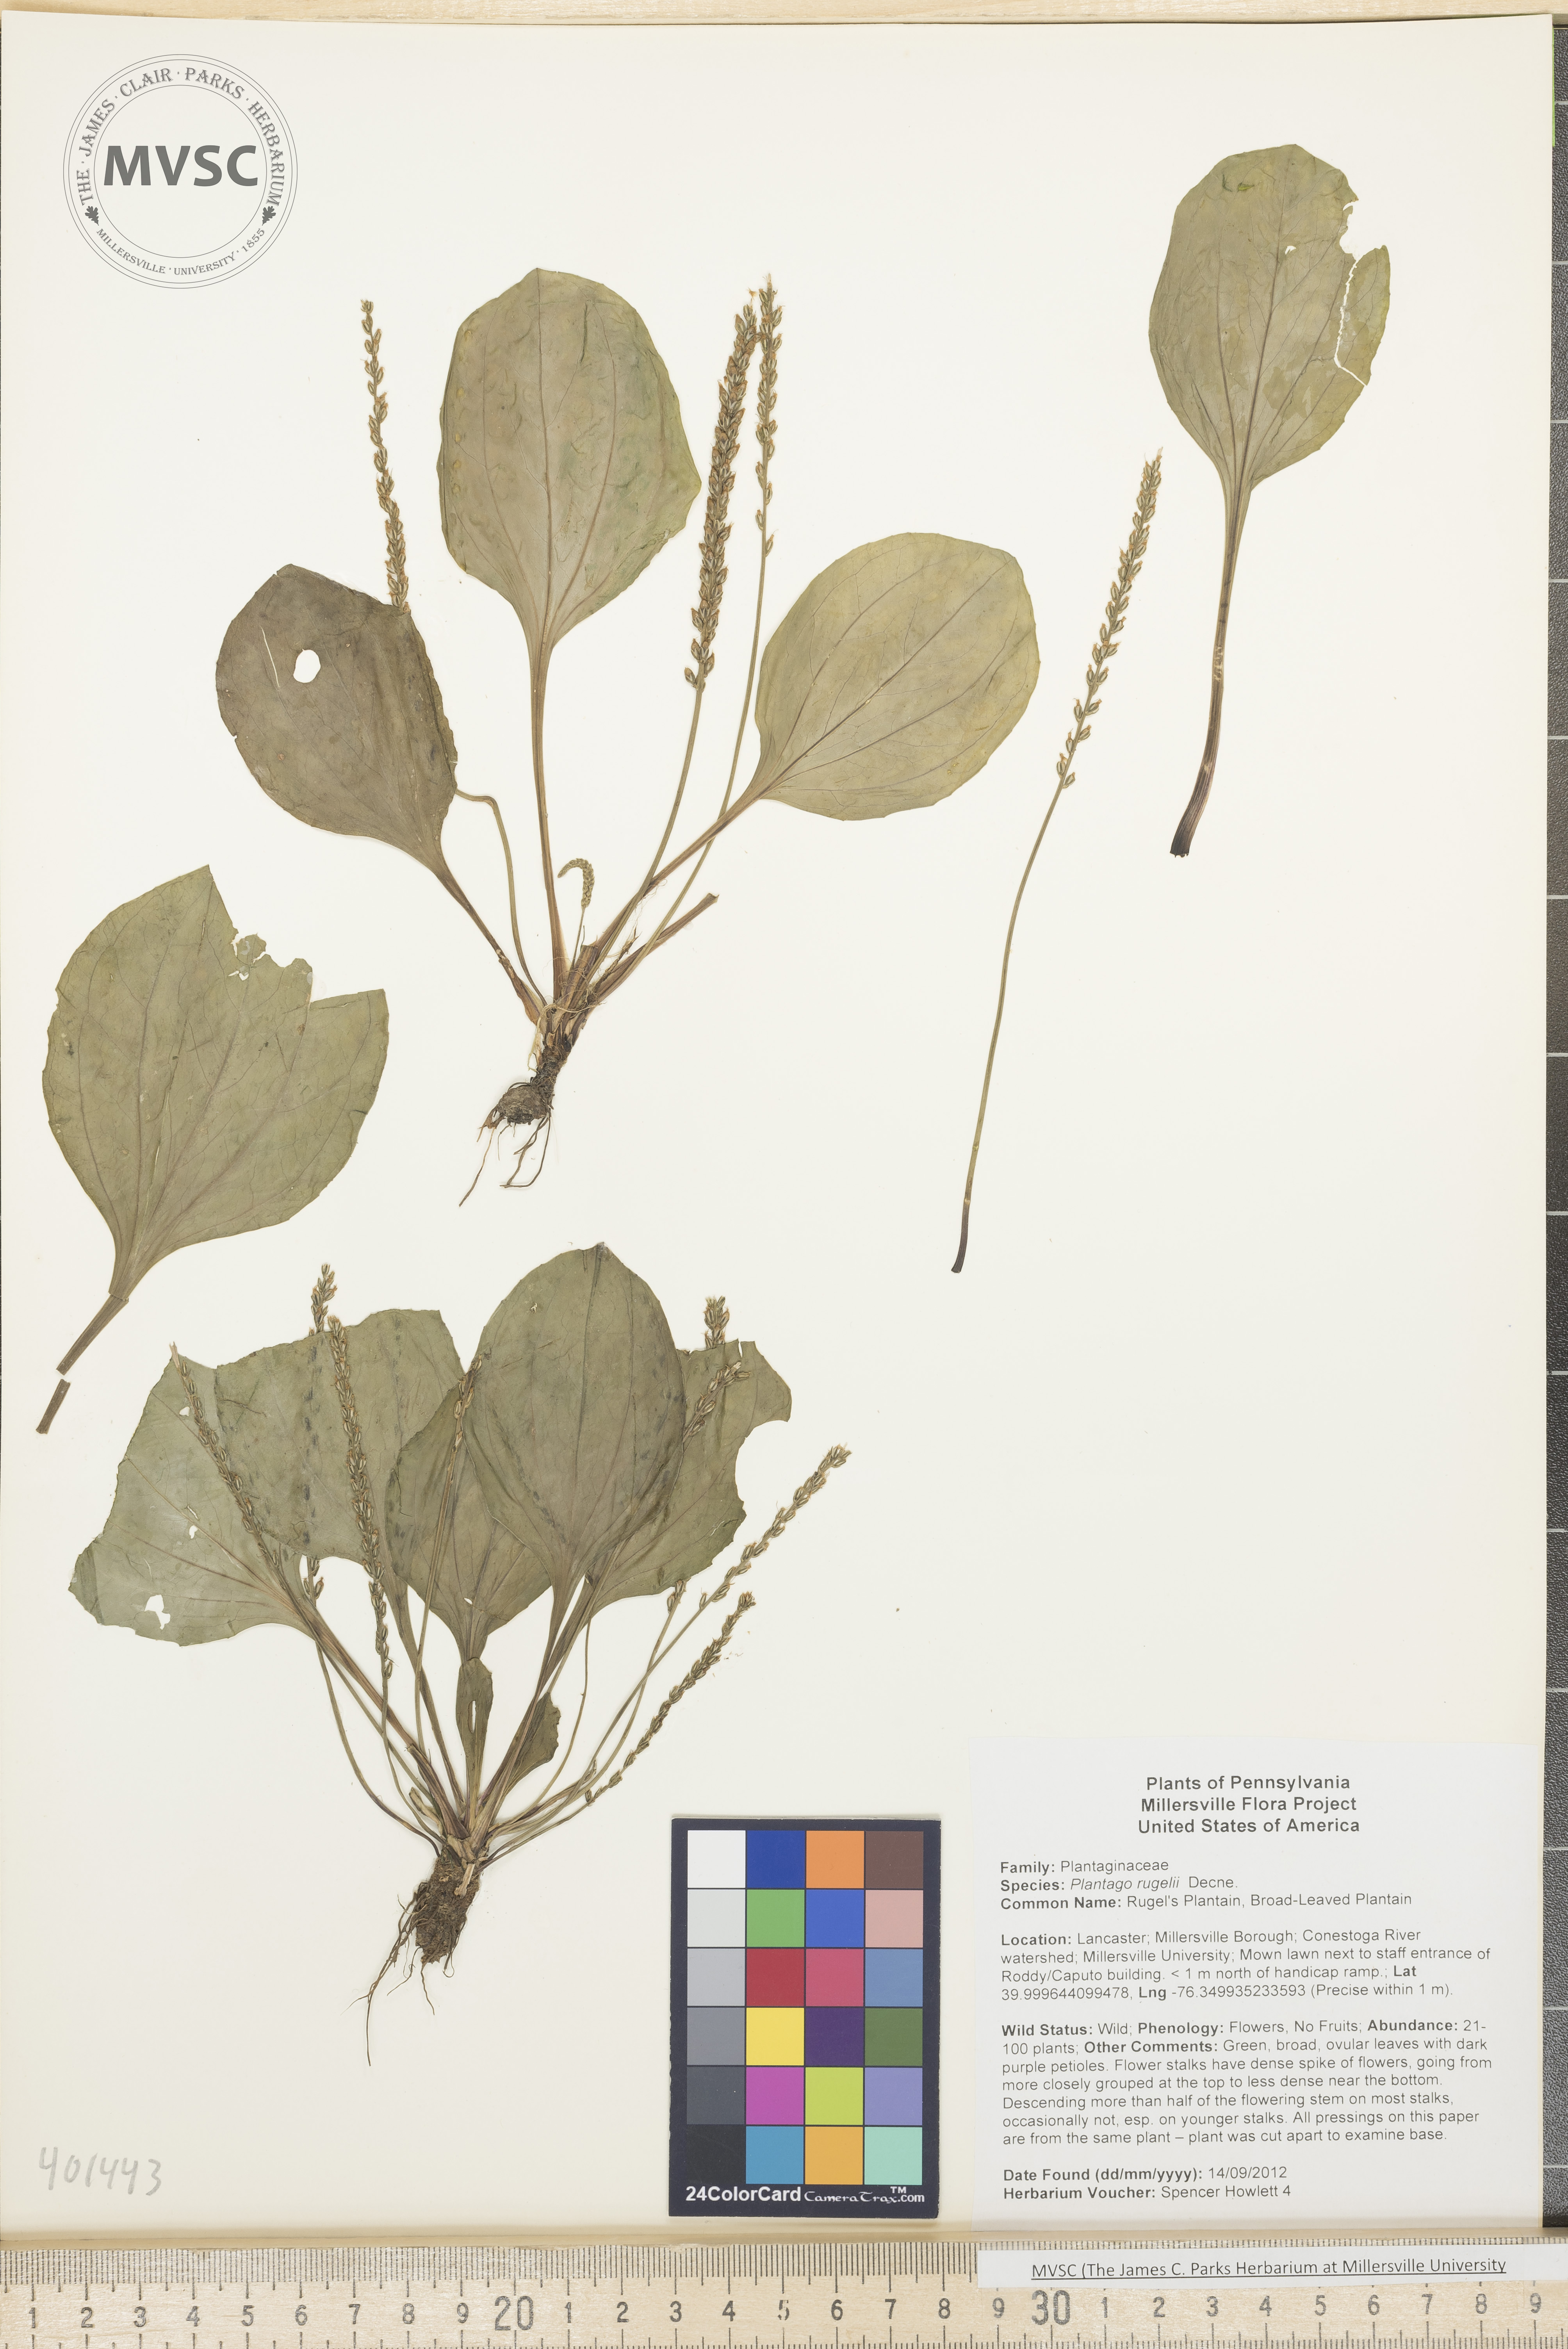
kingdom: Plantae
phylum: Tracheophyta
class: Magnoliopsida
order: Lamiales
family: Plantaginaceae
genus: Plantago
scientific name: Plantago rugelii
